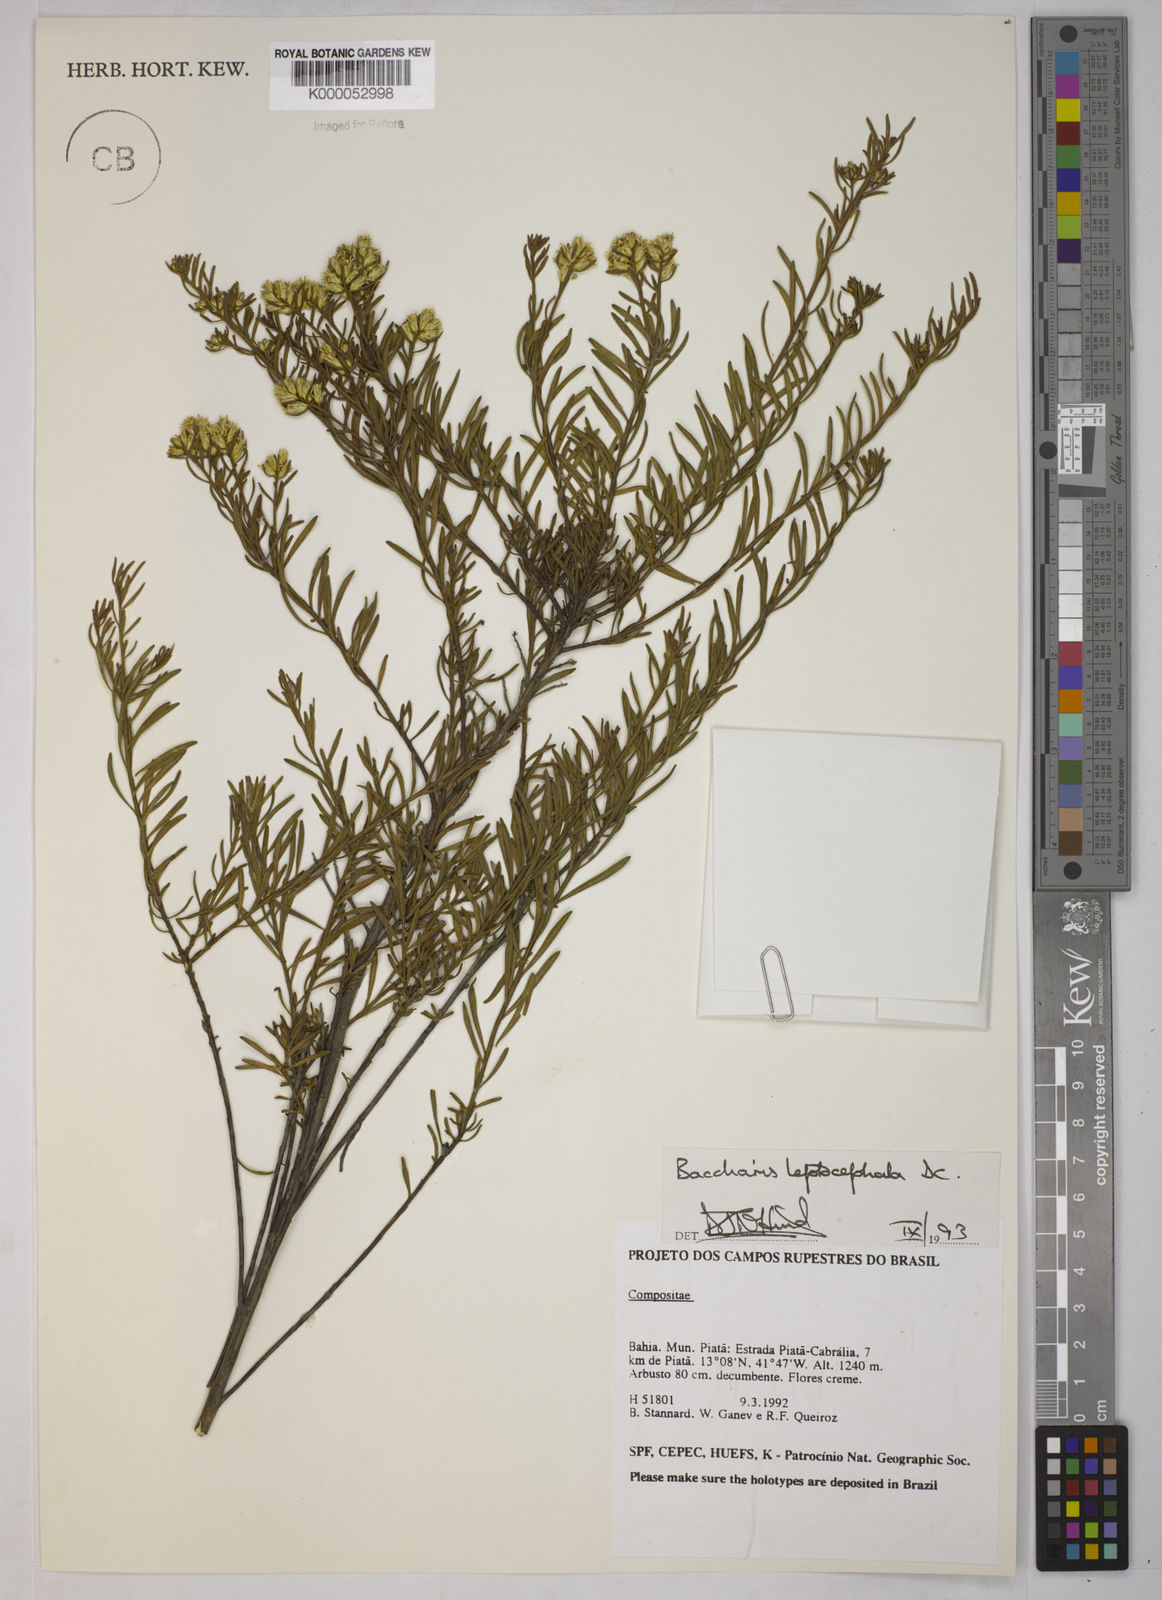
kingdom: Plantae
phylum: Tracheophyta
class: Magnoliopsida
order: Asterales
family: Asteraceae
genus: Baccharis
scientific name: Baccharis leptocephala
